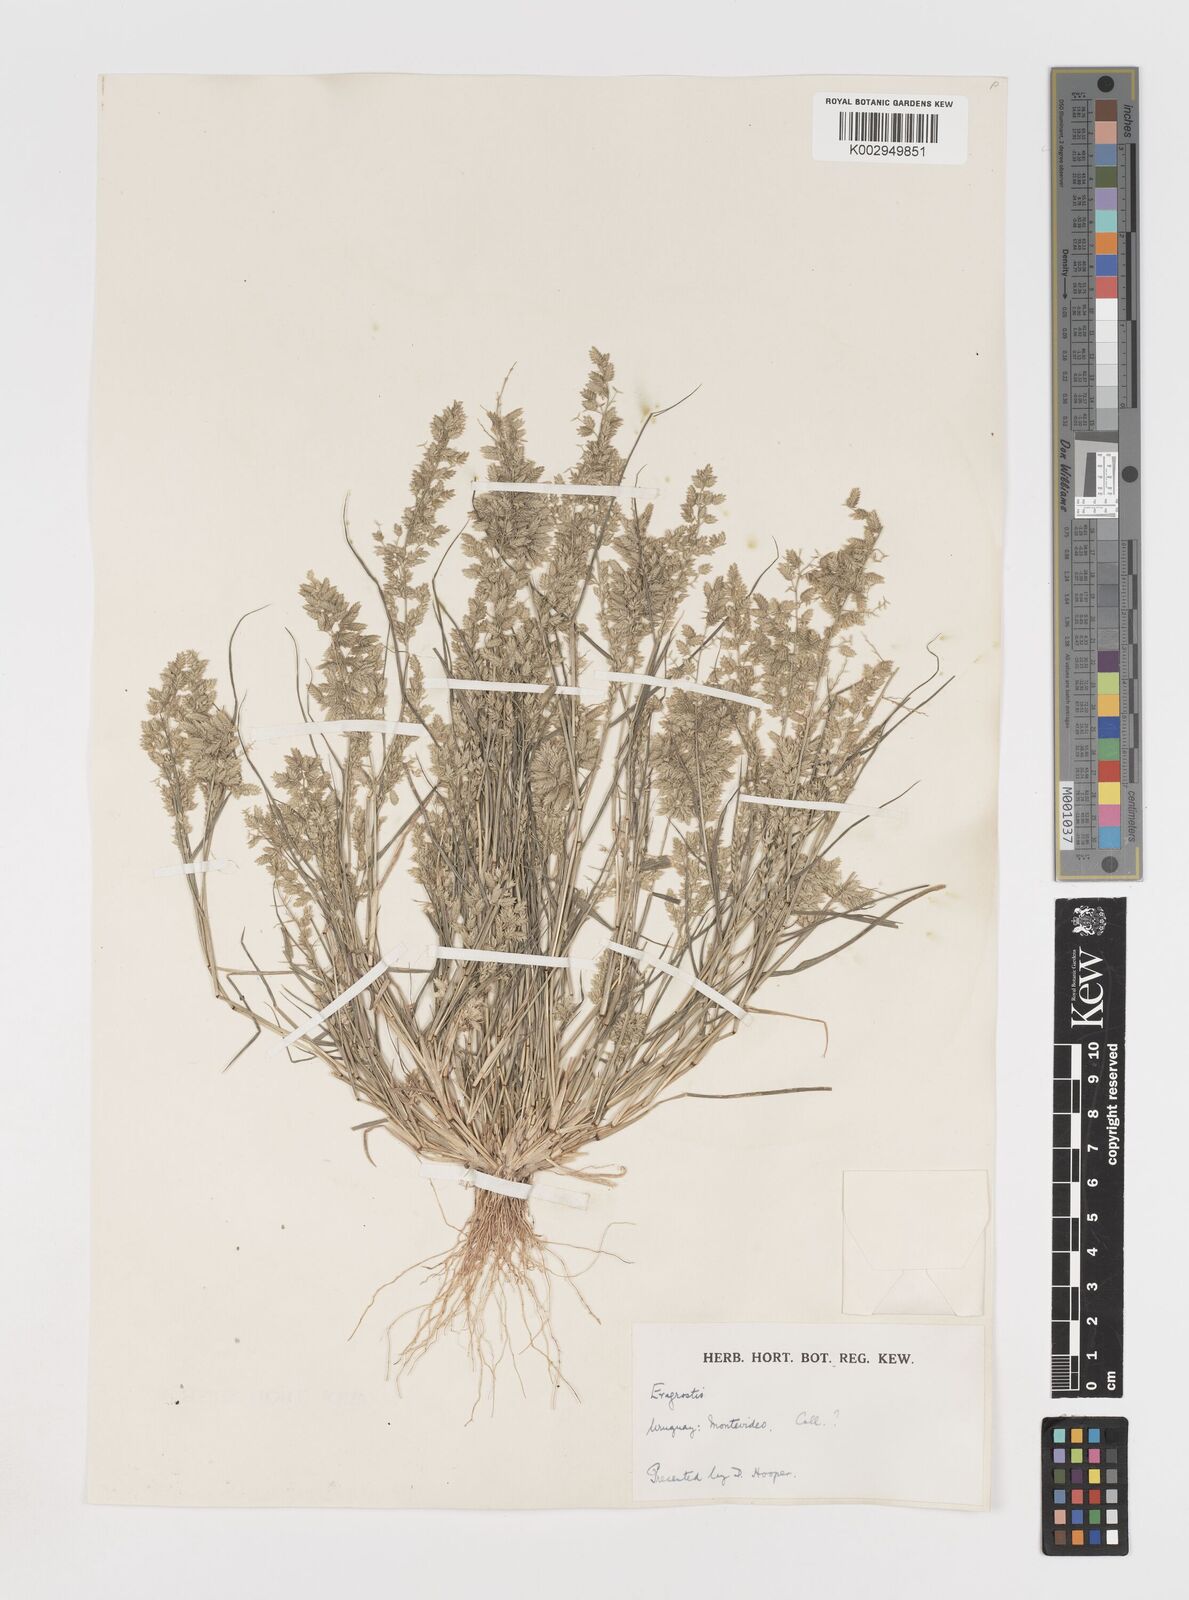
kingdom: Plantae
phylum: Tracheophyta
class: Liliopsida
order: Poales
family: Poaceae
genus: Eragrostis
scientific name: Eragrostis cilianensis
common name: Stinkgrass
